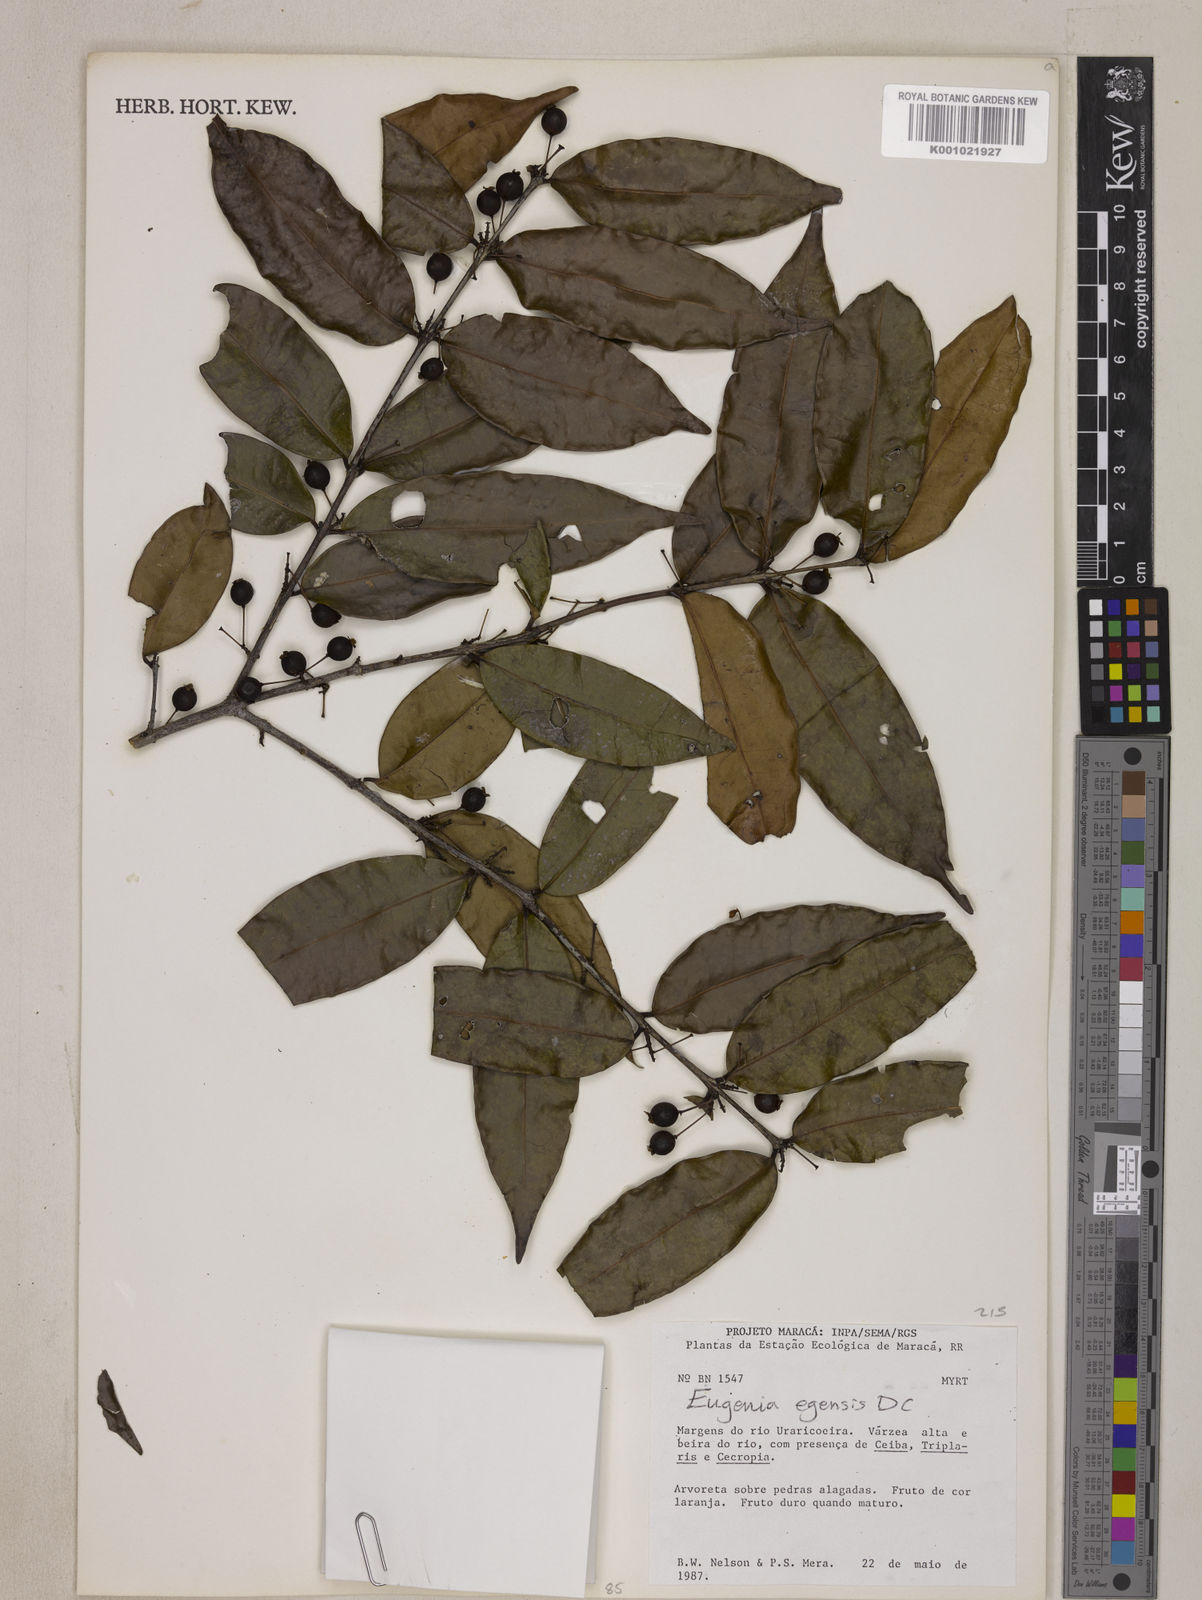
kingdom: Plantae
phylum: Tracheophyta
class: Magnoliopsida
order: Myrtales
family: Myrtaceae
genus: Eugenia
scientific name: Eugenia egensis
